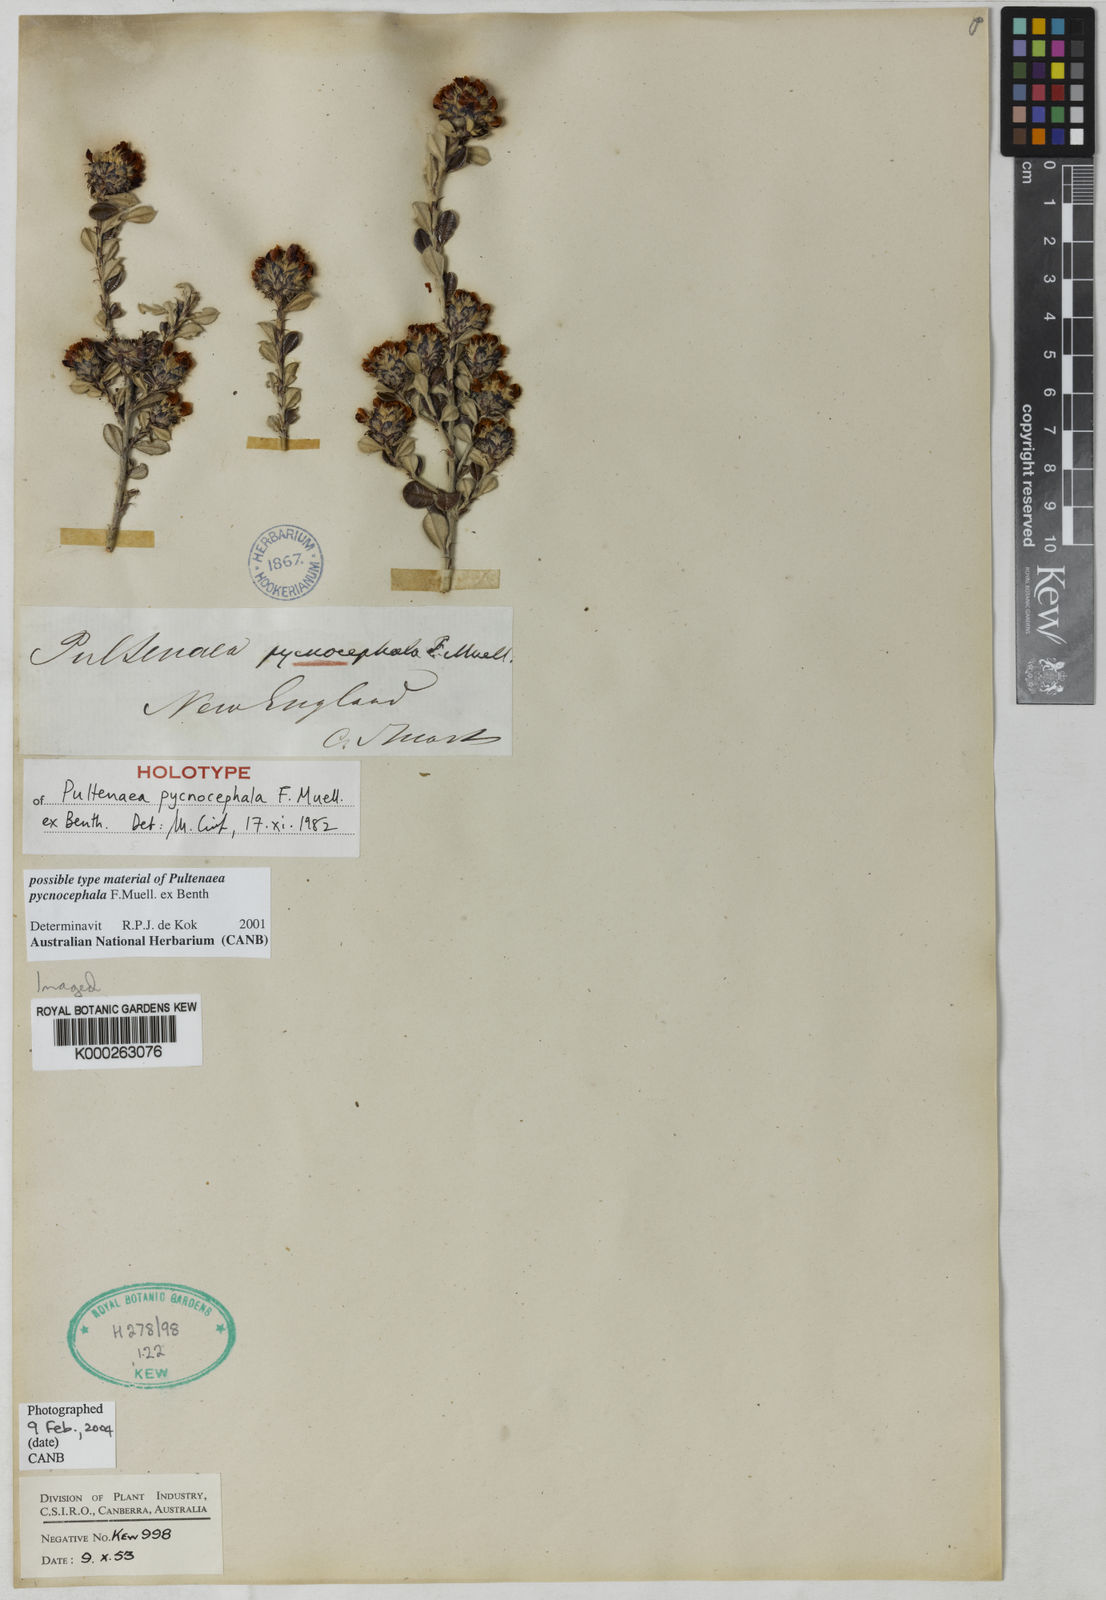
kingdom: Plantae
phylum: Tracheophyta
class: Magnoliopsida
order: Fabales
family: Fabaceae
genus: Pultenaea
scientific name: Pultenaea pycnocephala
